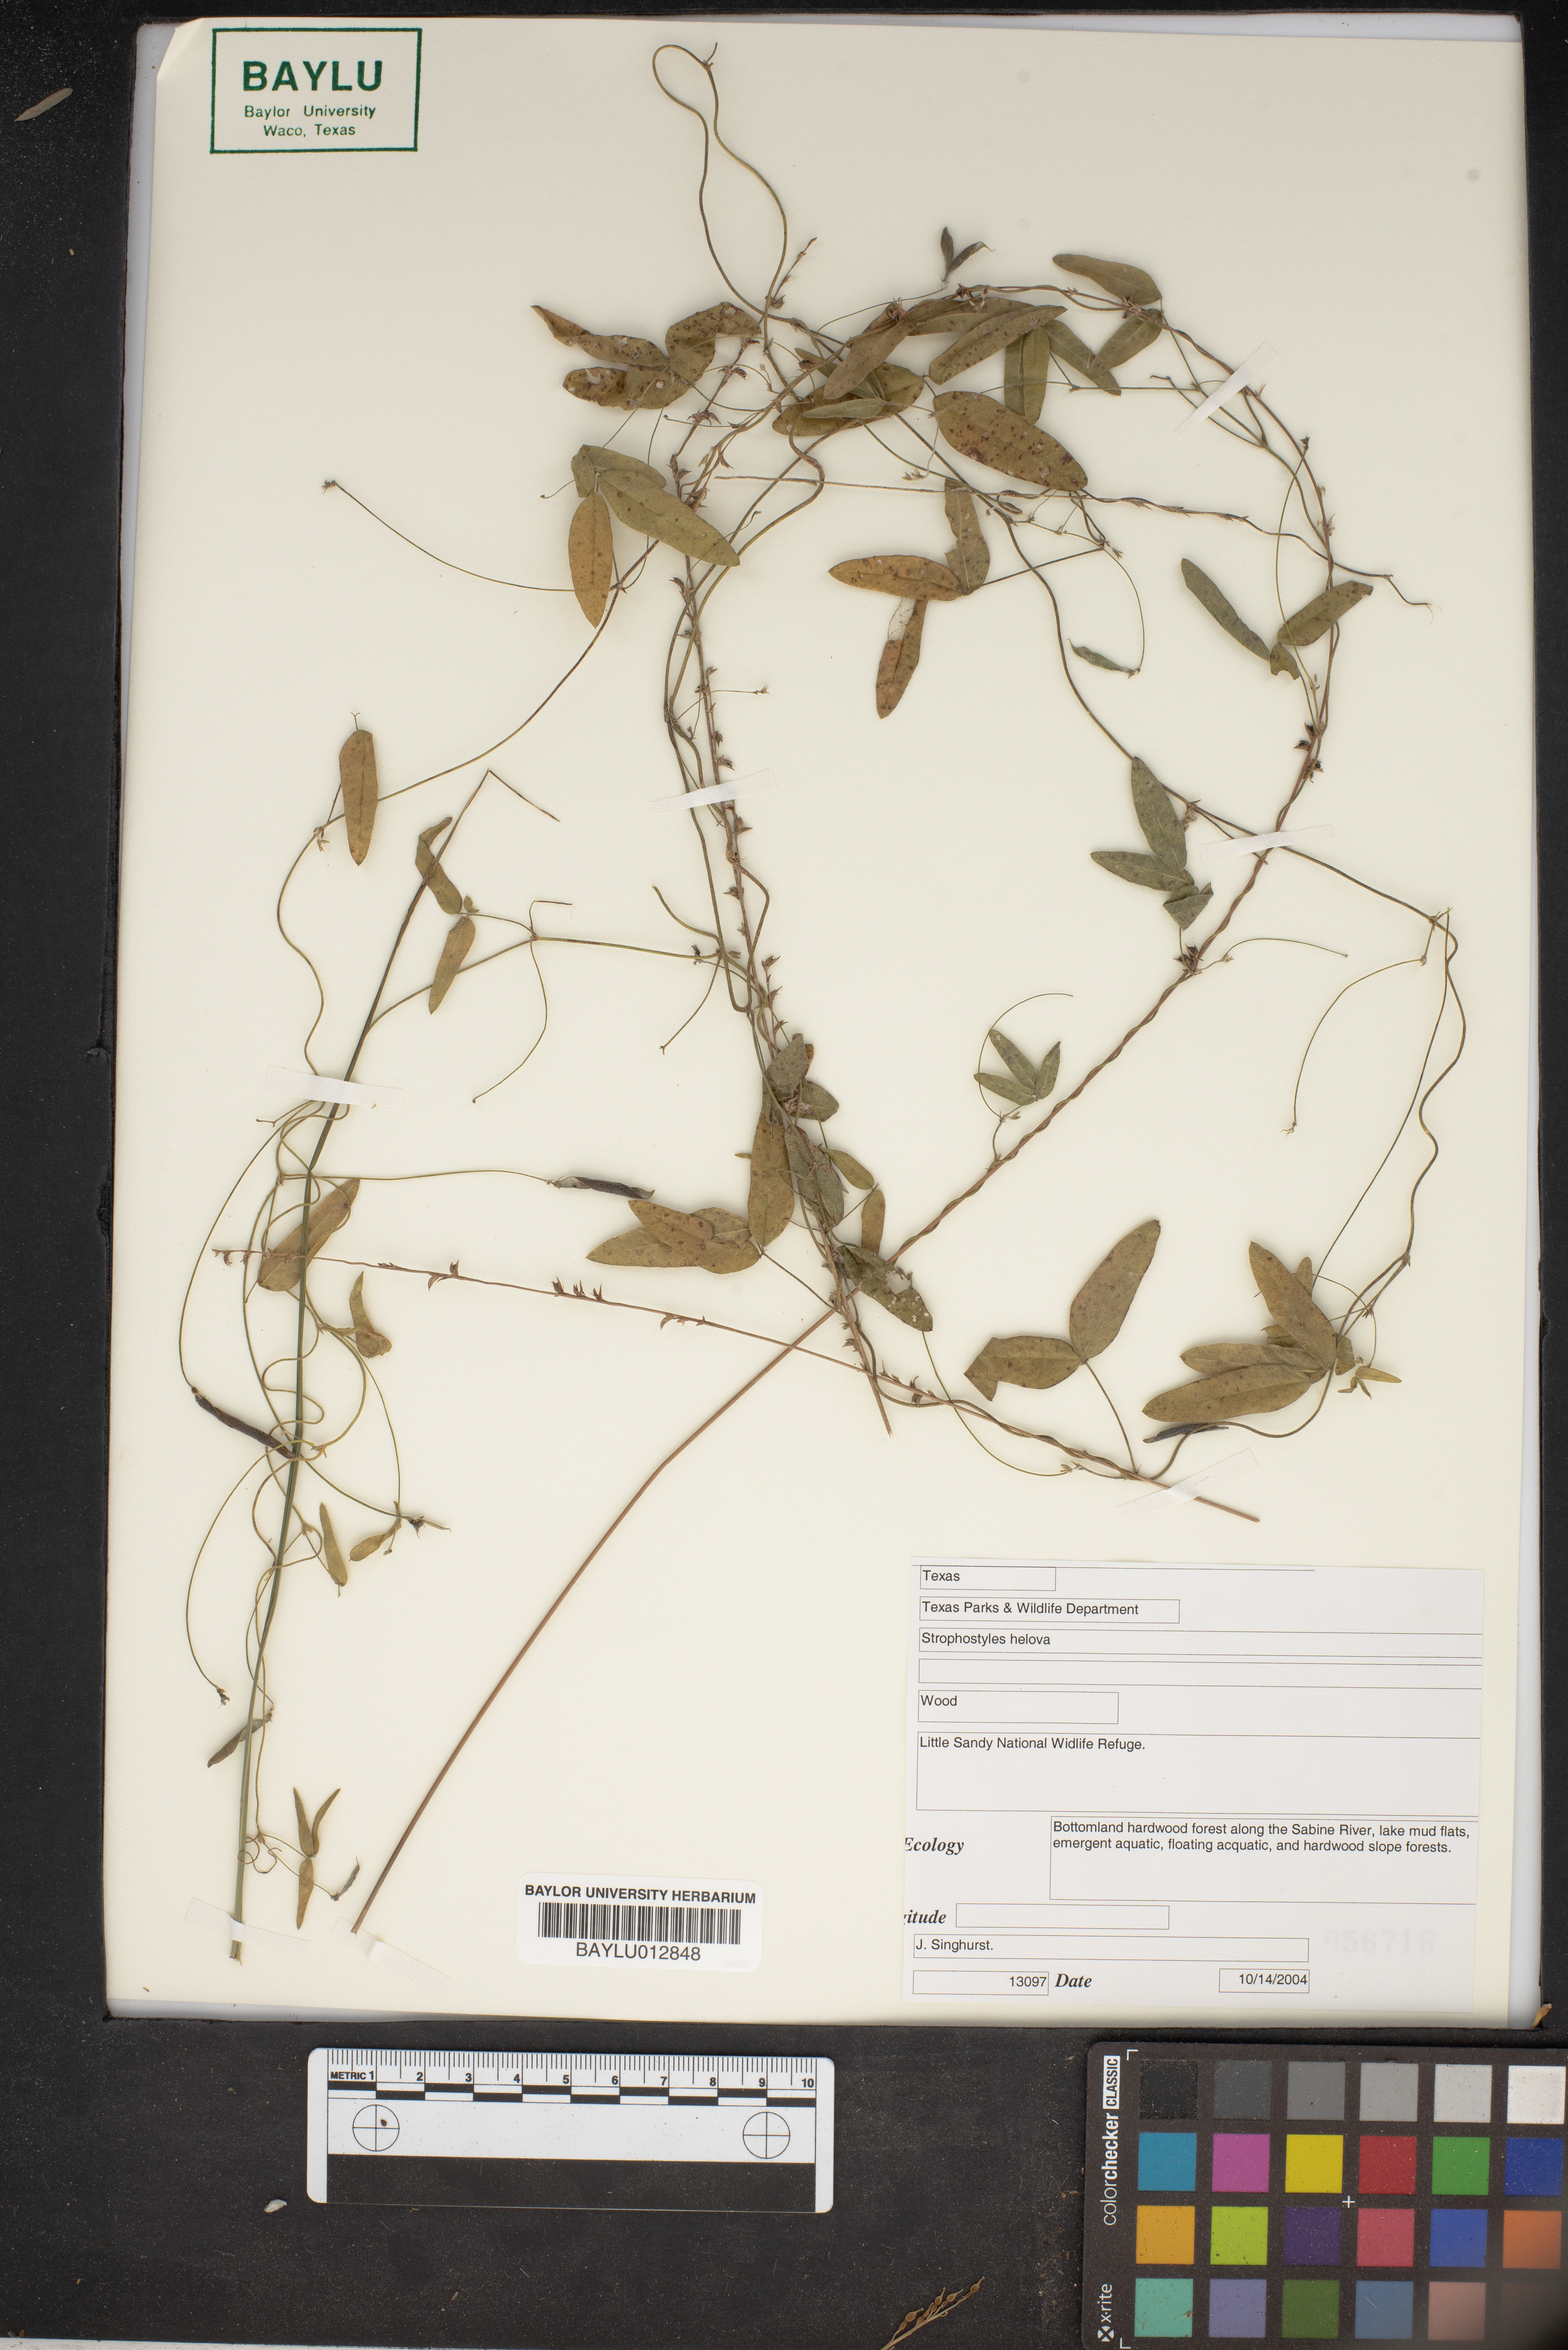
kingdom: Plantae
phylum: Tracheophyta
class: Magnoliopsida
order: Fabales
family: Fabaceae
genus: Strophostyles
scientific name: Strophostyles helvola
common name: Trailing wild bean
